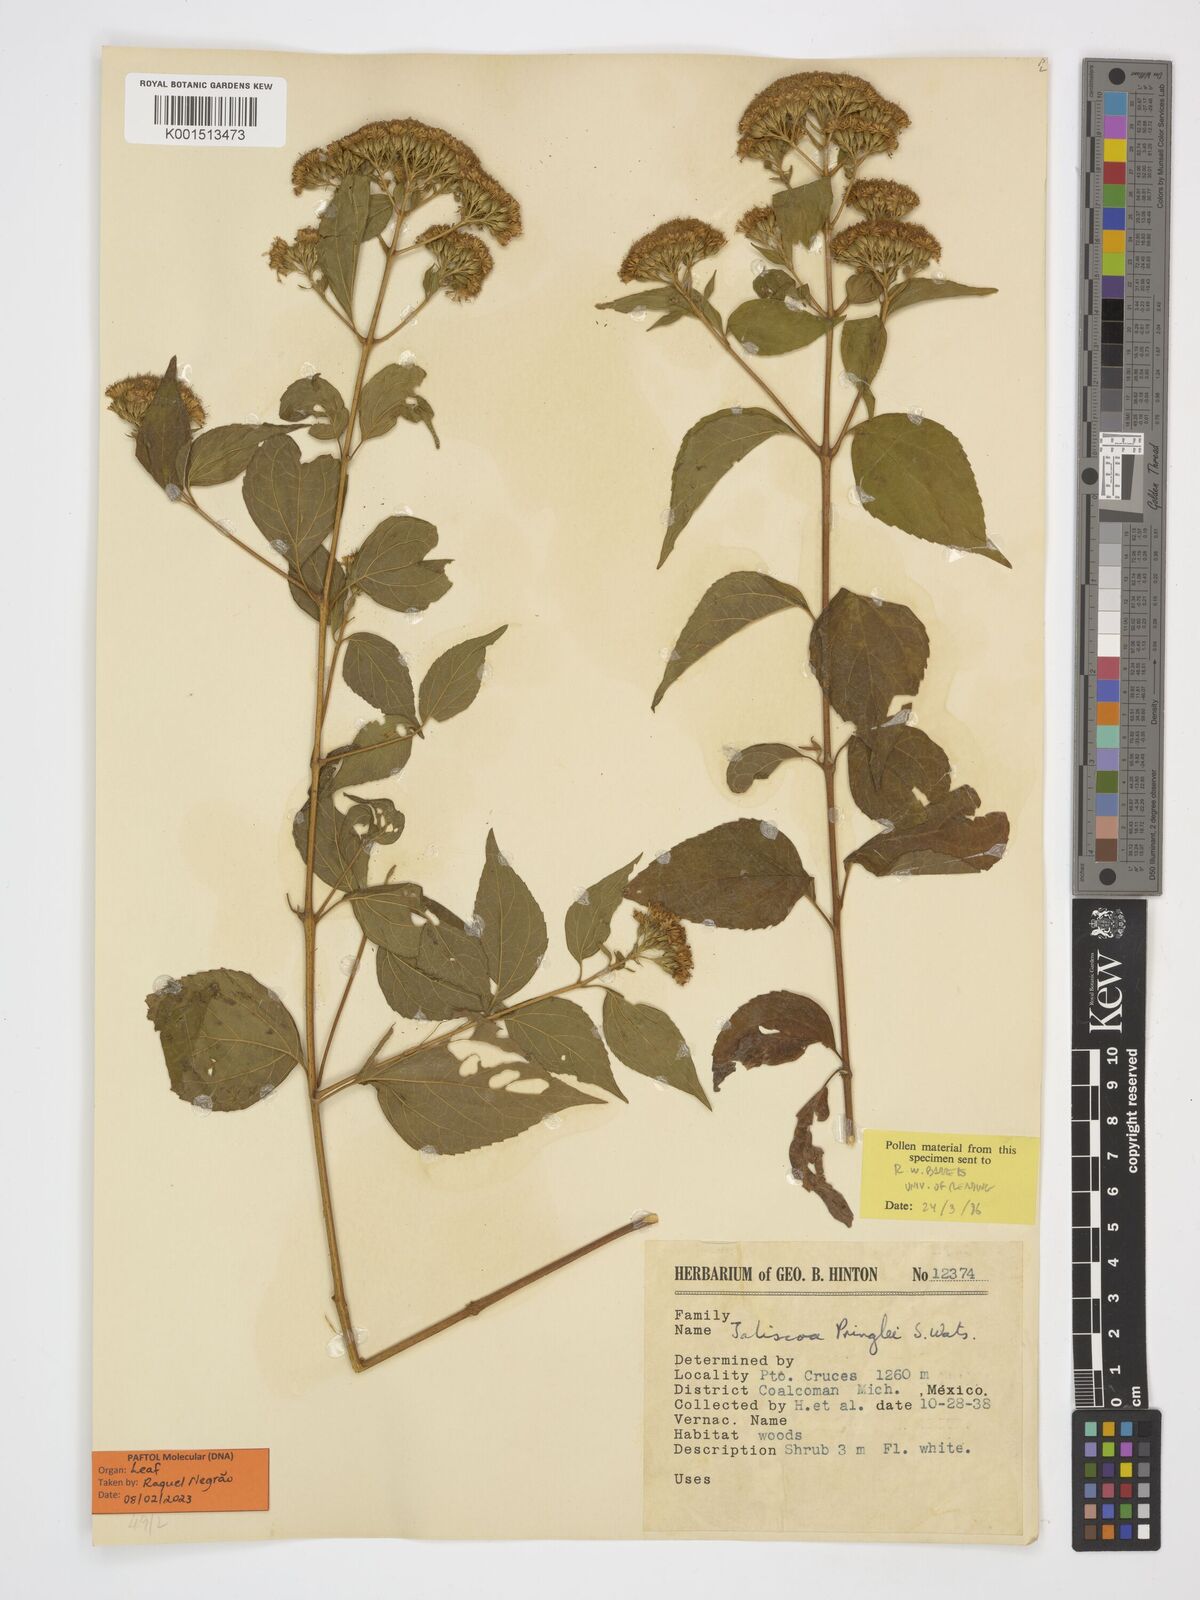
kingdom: Plantae
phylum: Tracheophyta
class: Magnoliopsida
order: Asterales
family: Asteraceae
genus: Jaliscoa
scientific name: Jaliscoa pringlei
